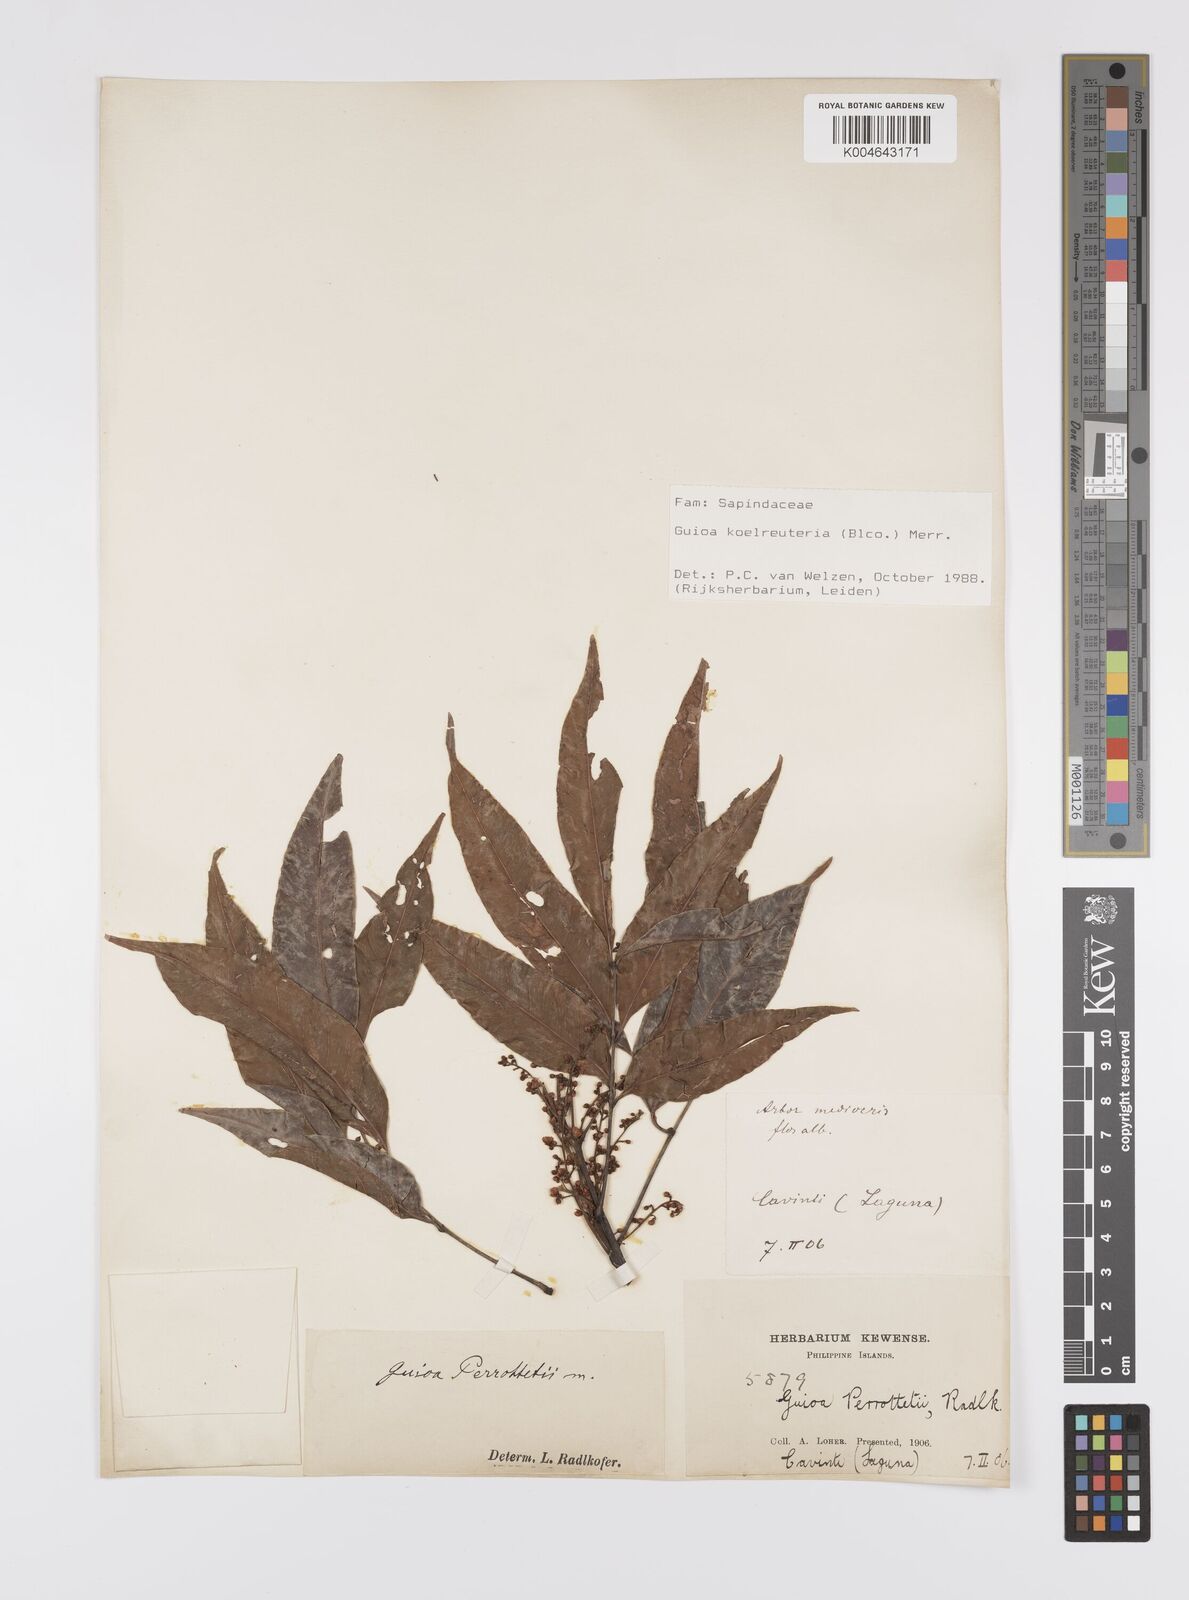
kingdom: Plantae
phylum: Tracheophyta
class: Magnoliopsida
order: Sapindales
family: Sapindaceae
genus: Guioa
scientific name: Guioa koelreuteria
